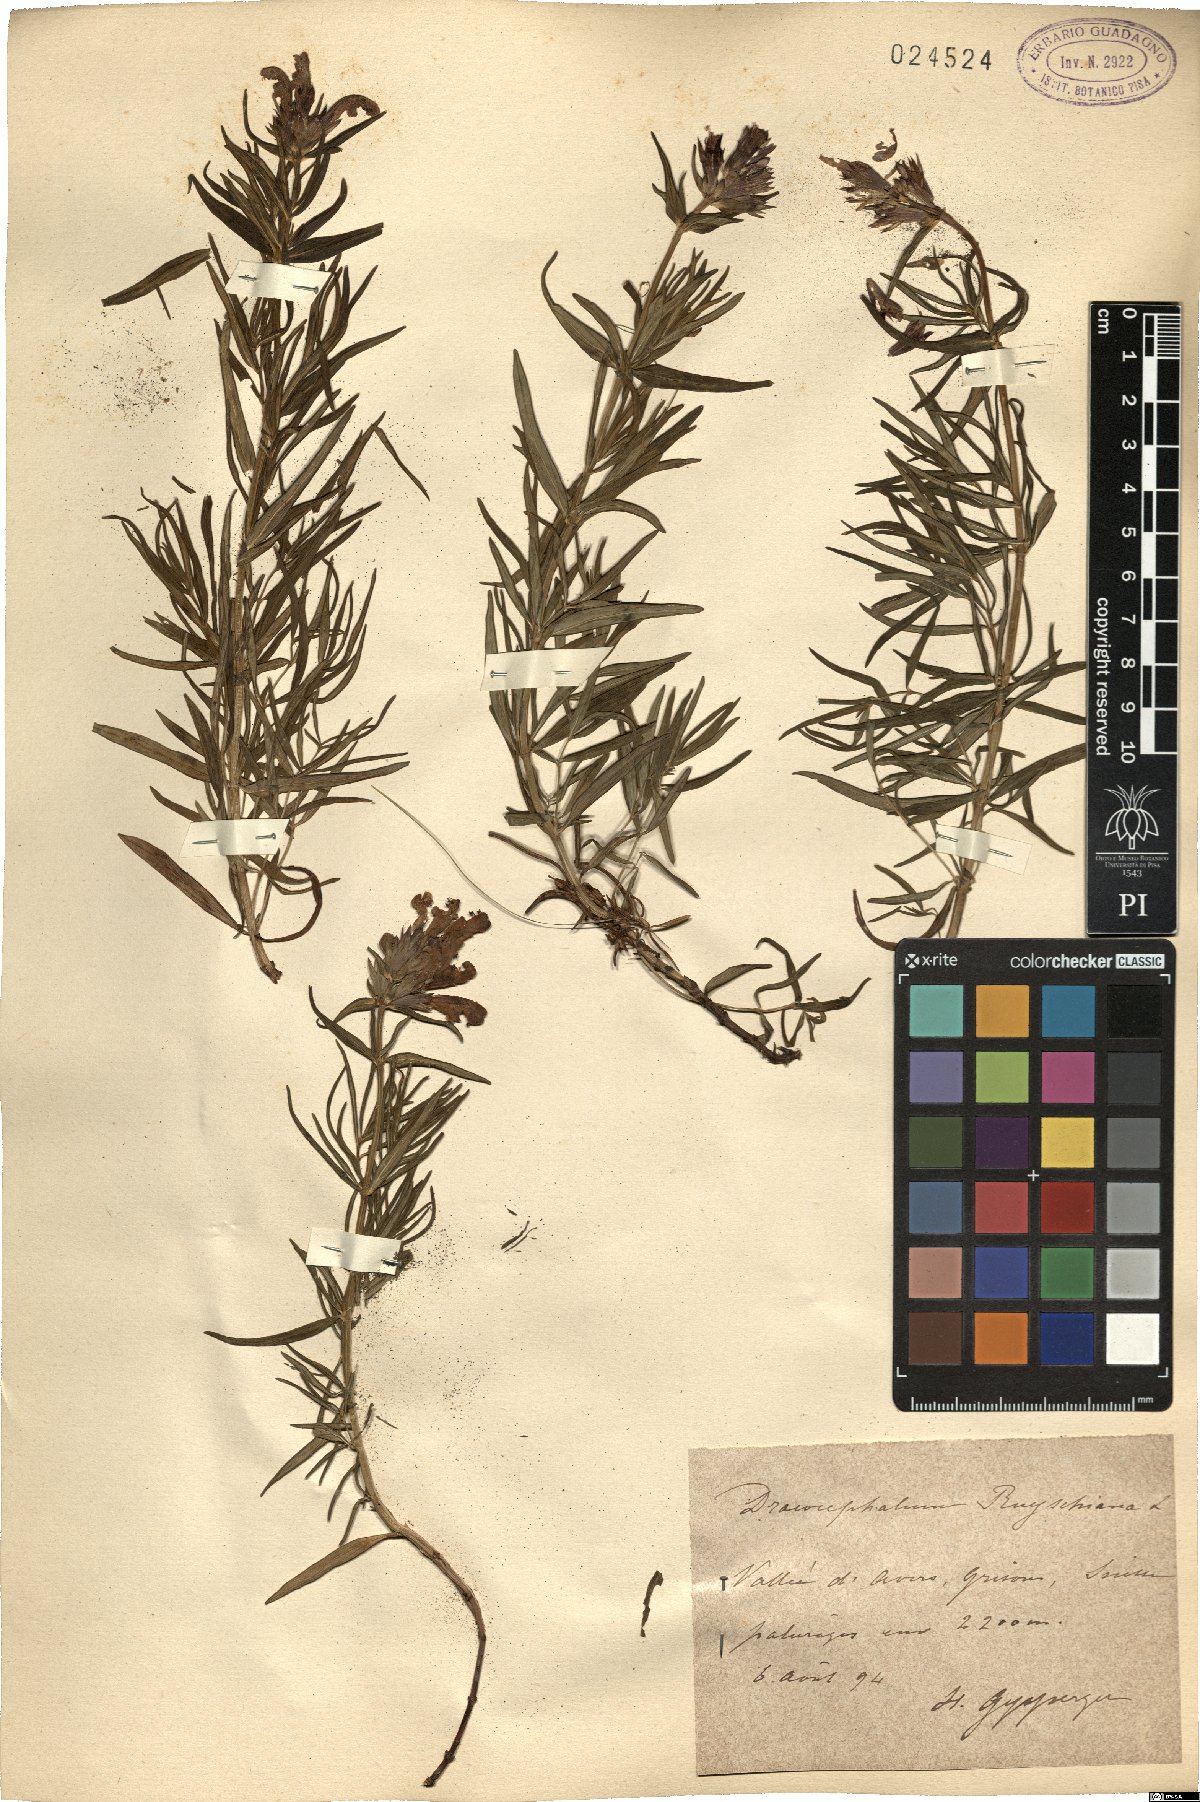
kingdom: Plantae
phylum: Tracheophyta
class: Magnoliopsida
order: Lamiales
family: Lamiaceae
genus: Dracocephalum
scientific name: Dracocephalum ruyschiana
